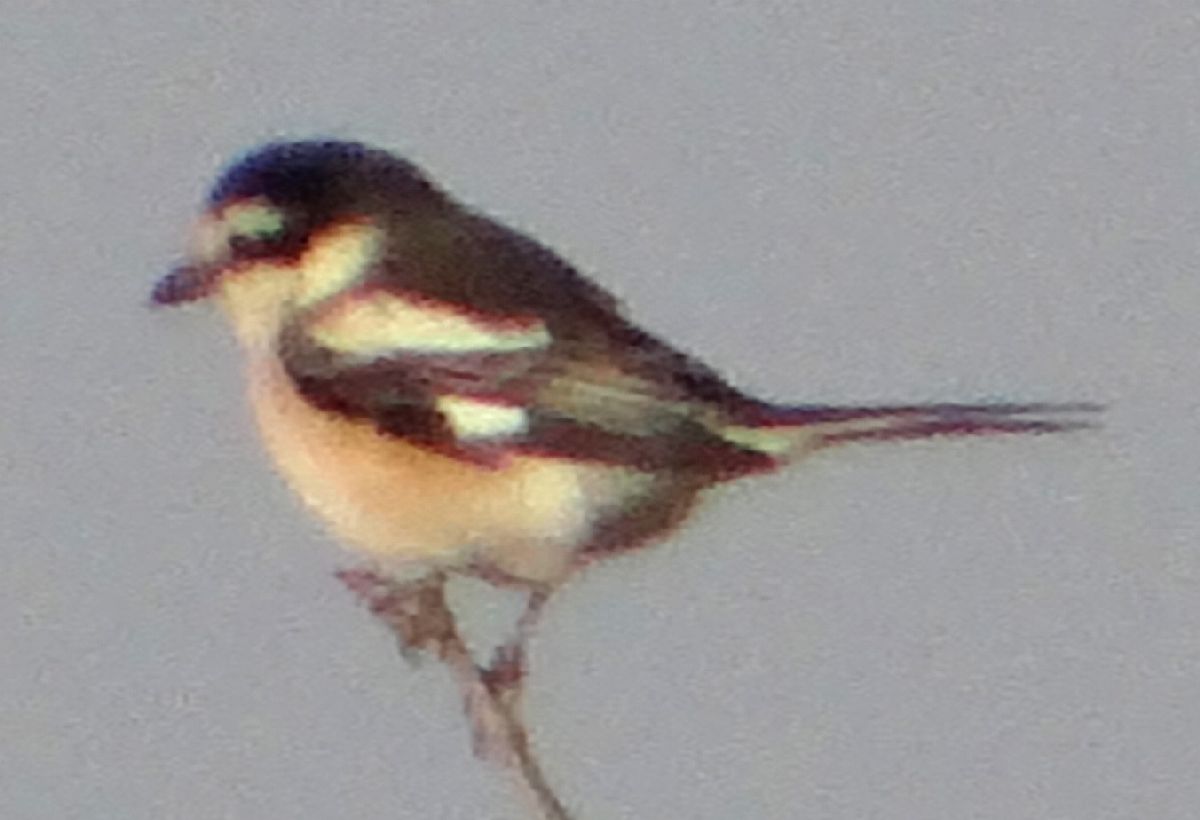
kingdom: Animalia
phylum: Chordata
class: Aves
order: Passeriformes
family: Laniidae
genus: Lanius
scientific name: Lanius nubicus
